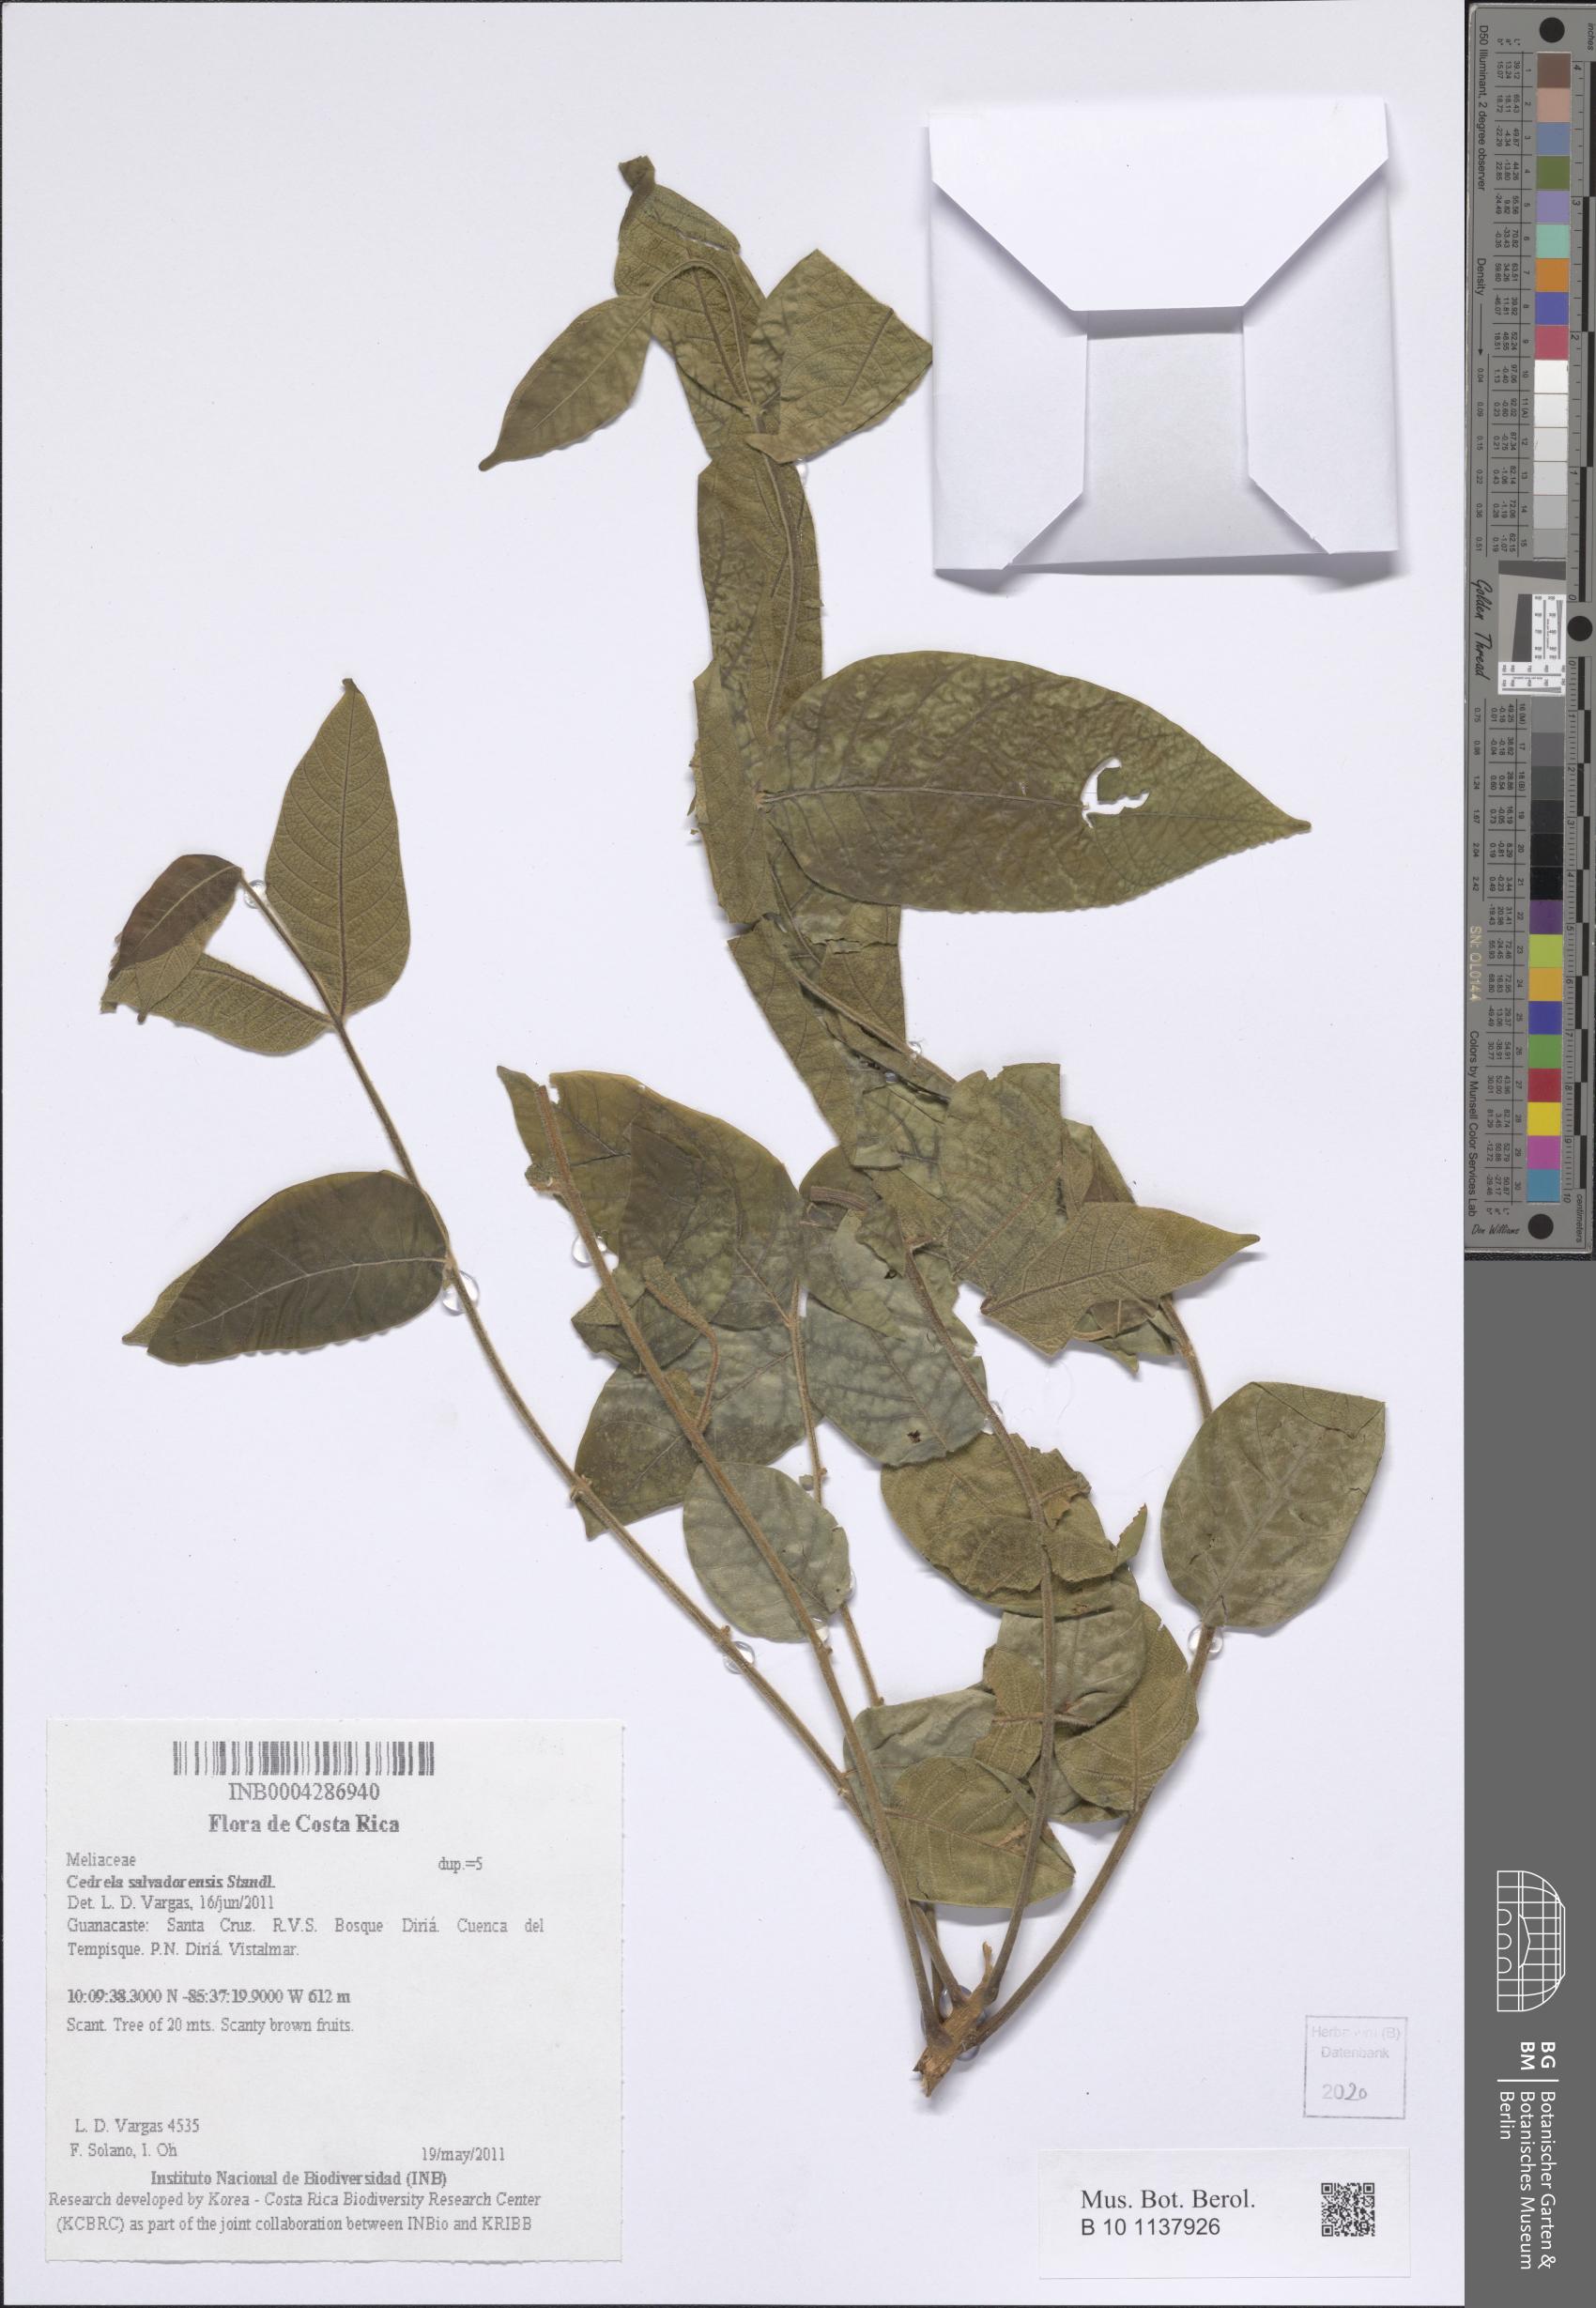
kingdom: Plantae
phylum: Tracheophyta
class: Magnoliopsida
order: Sapindales
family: Meliaceae
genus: Cedrela
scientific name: Cedrela salvadorensis
